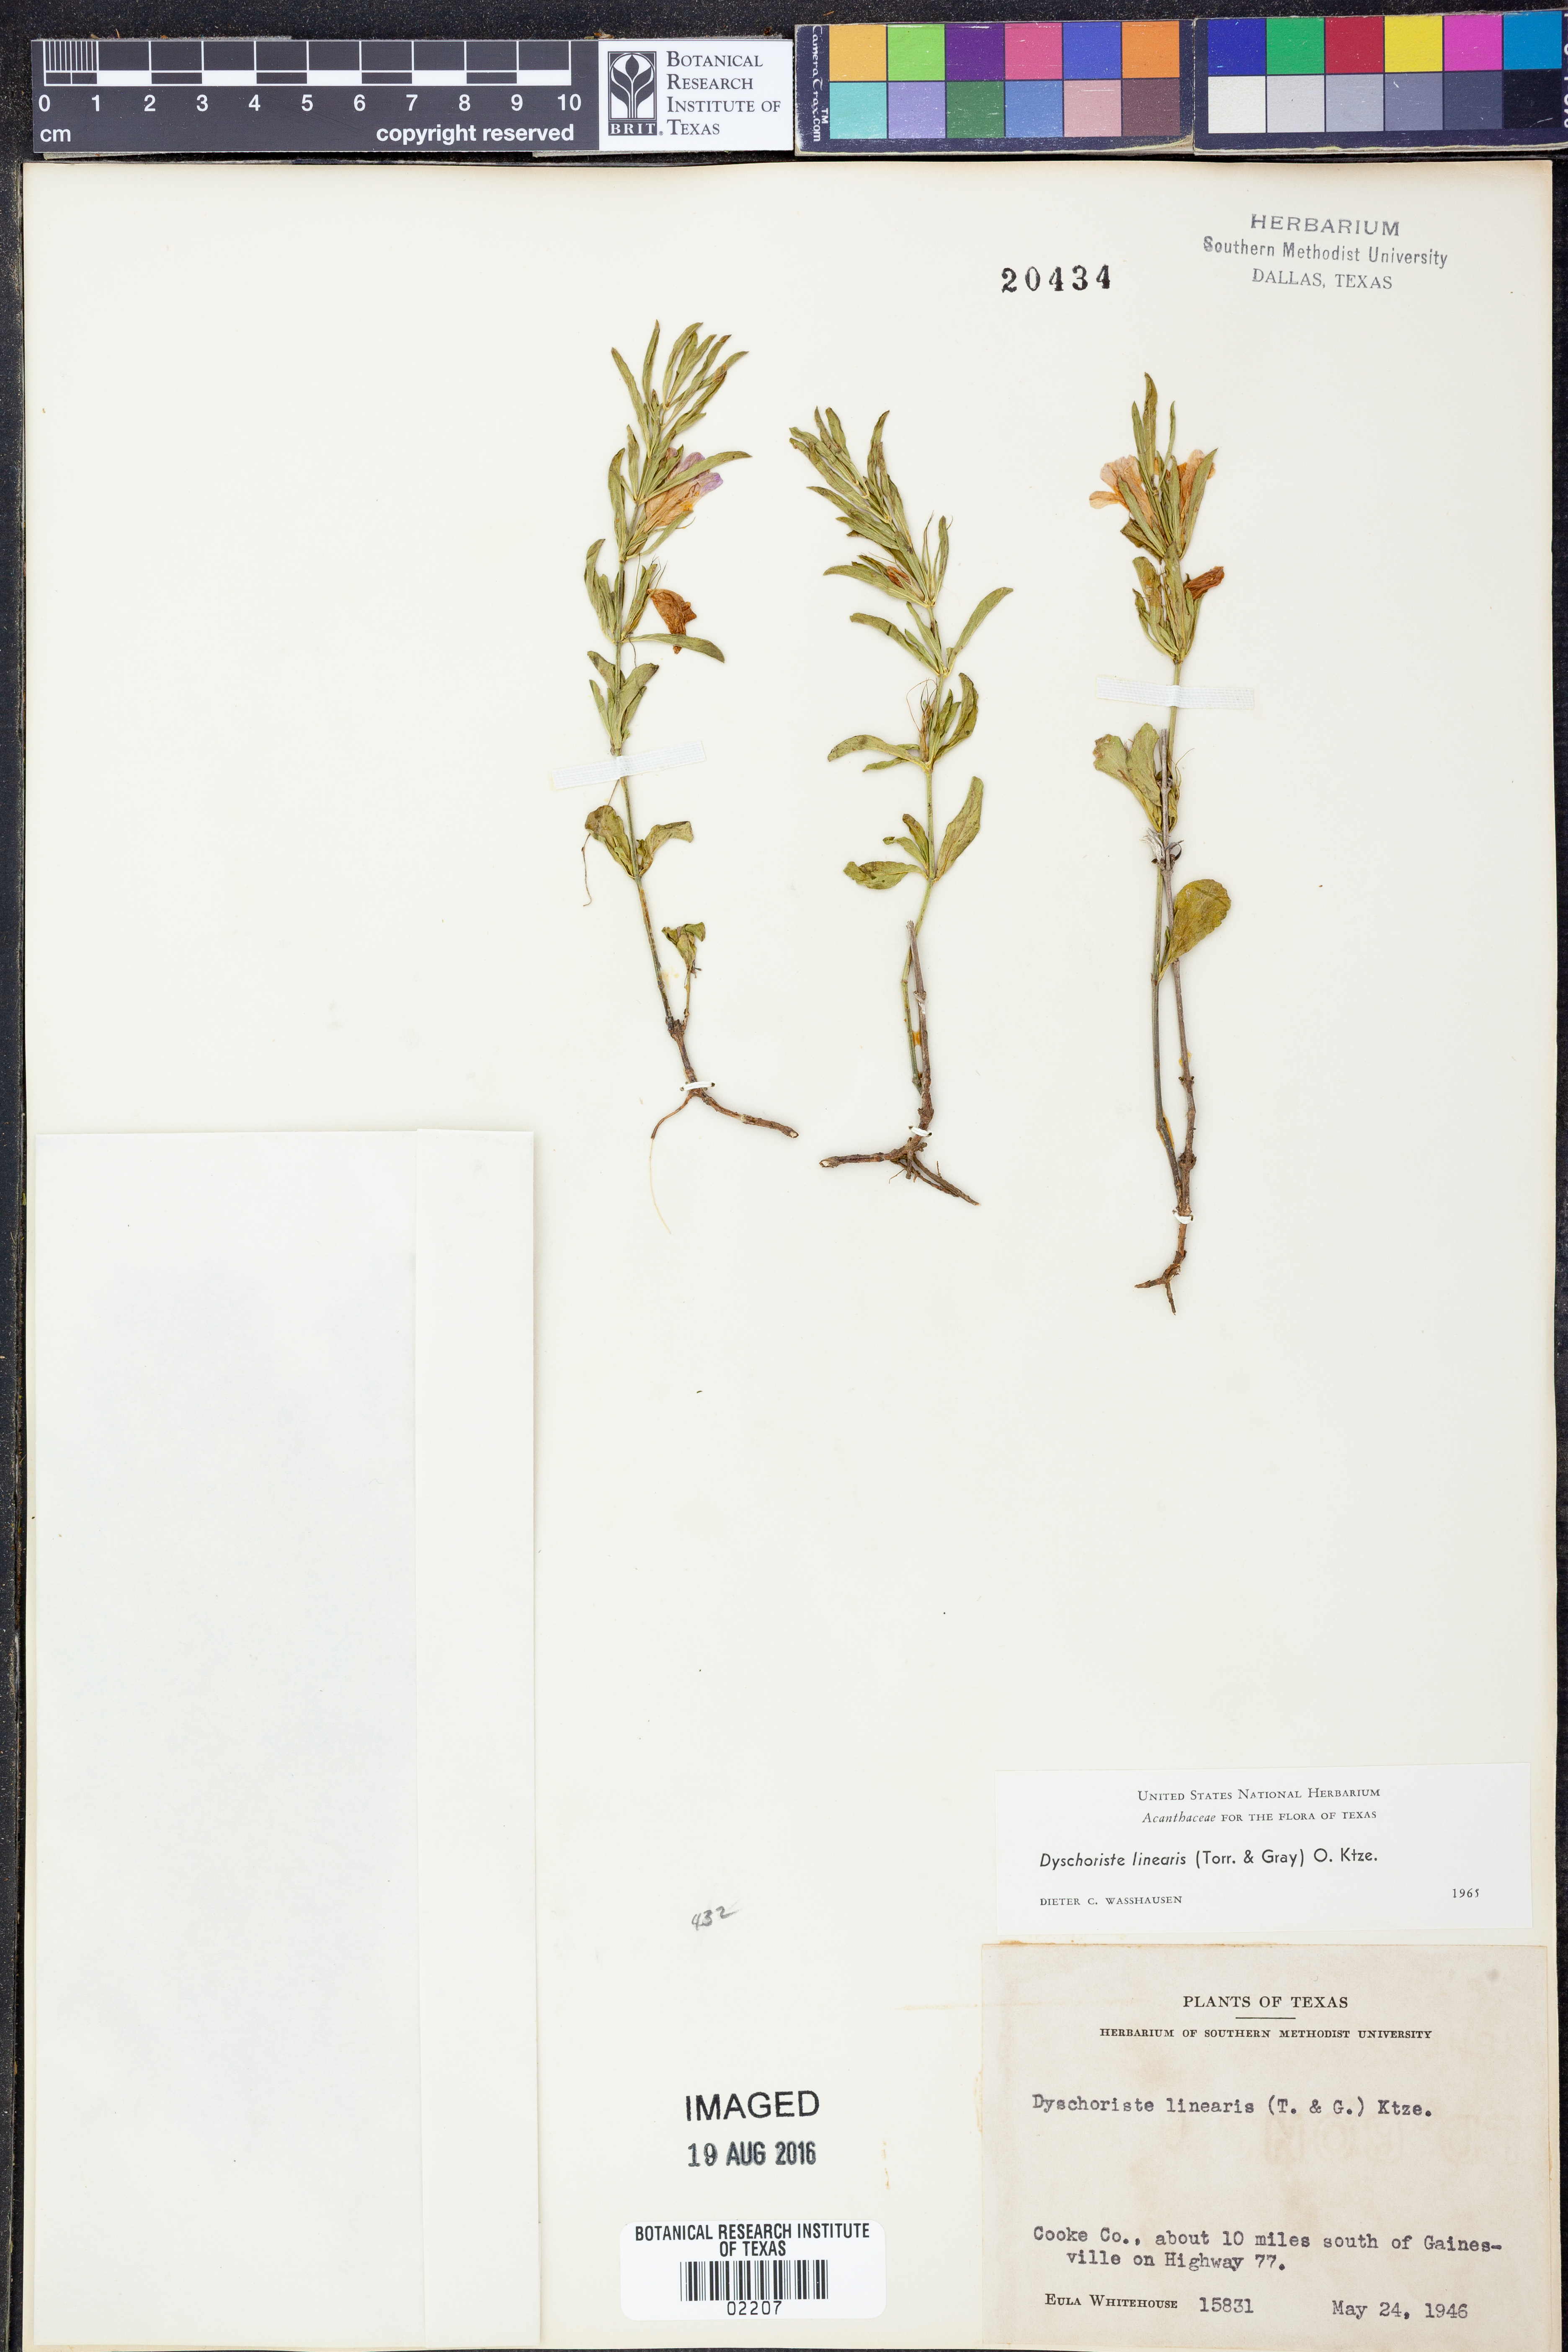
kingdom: Plantae
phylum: Tracheophyta
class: Magnoliopsida
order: Lamiales
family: Acanthaceae
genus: Dyschoriste
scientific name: Dyschoriste linearis
